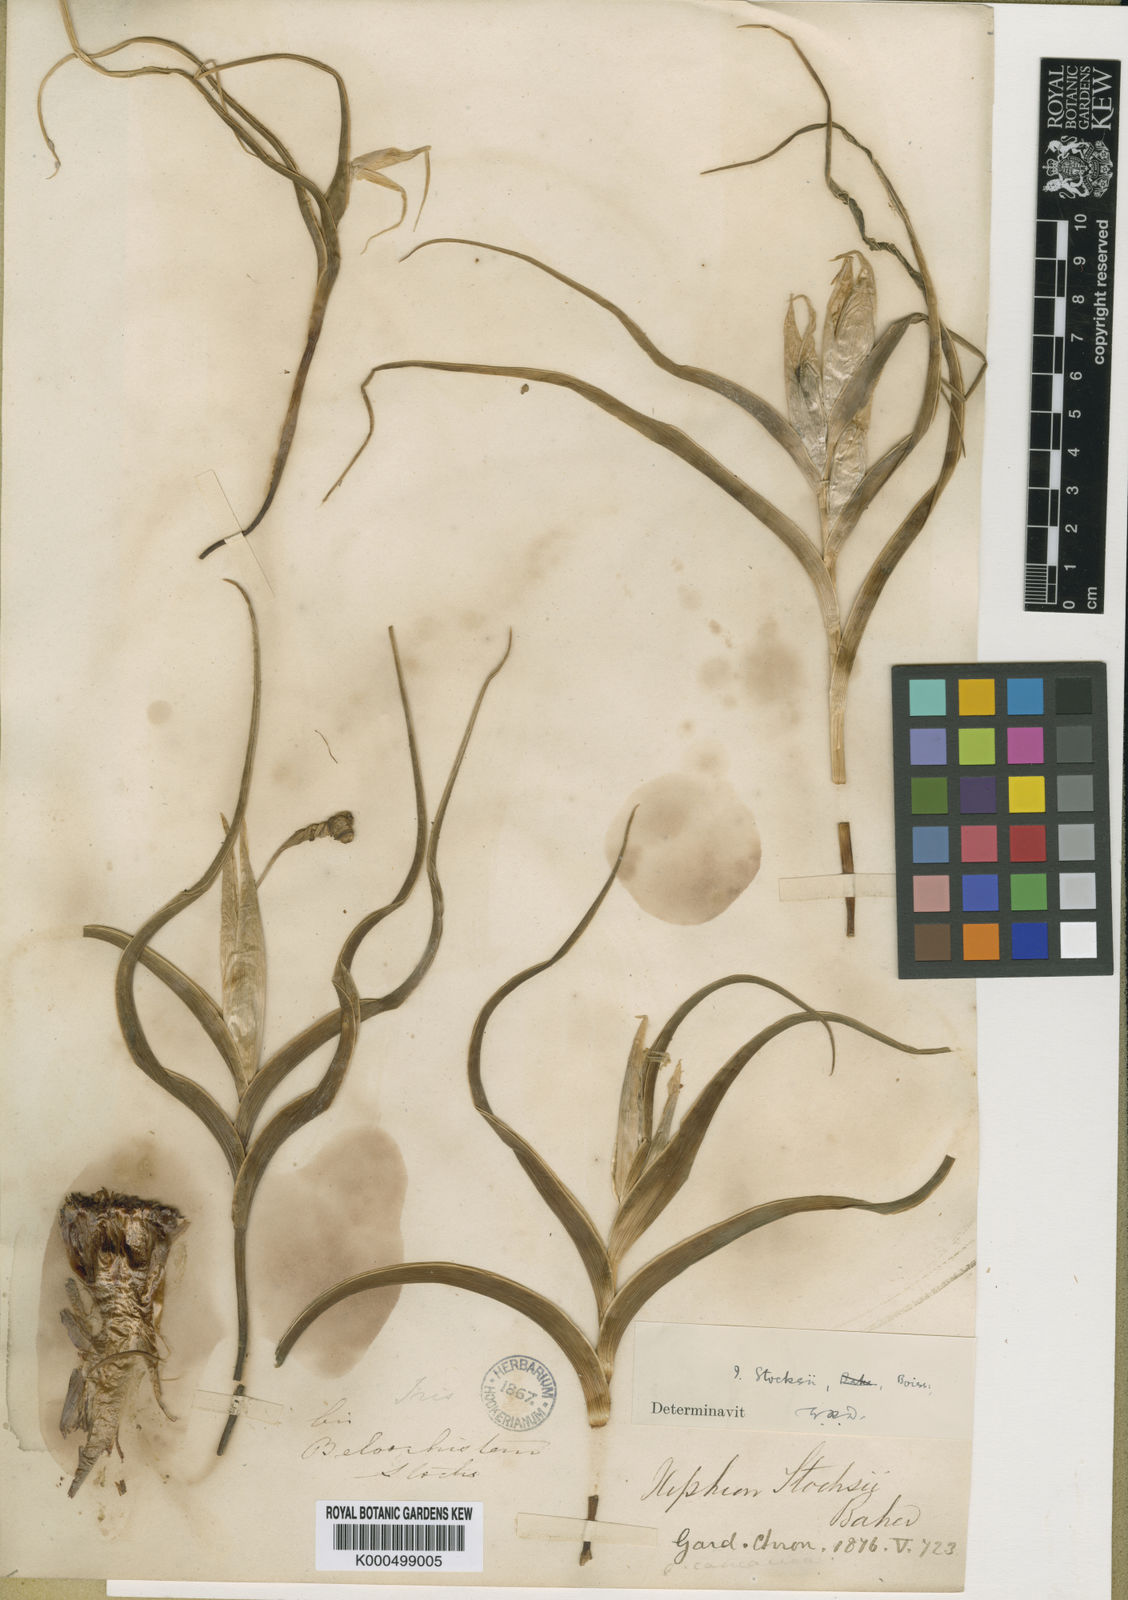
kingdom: Plantae
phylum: Tracheophyta
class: Liliopsida
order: Asparagales
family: Iridaceae
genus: Iris
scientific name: Iris stocksii
